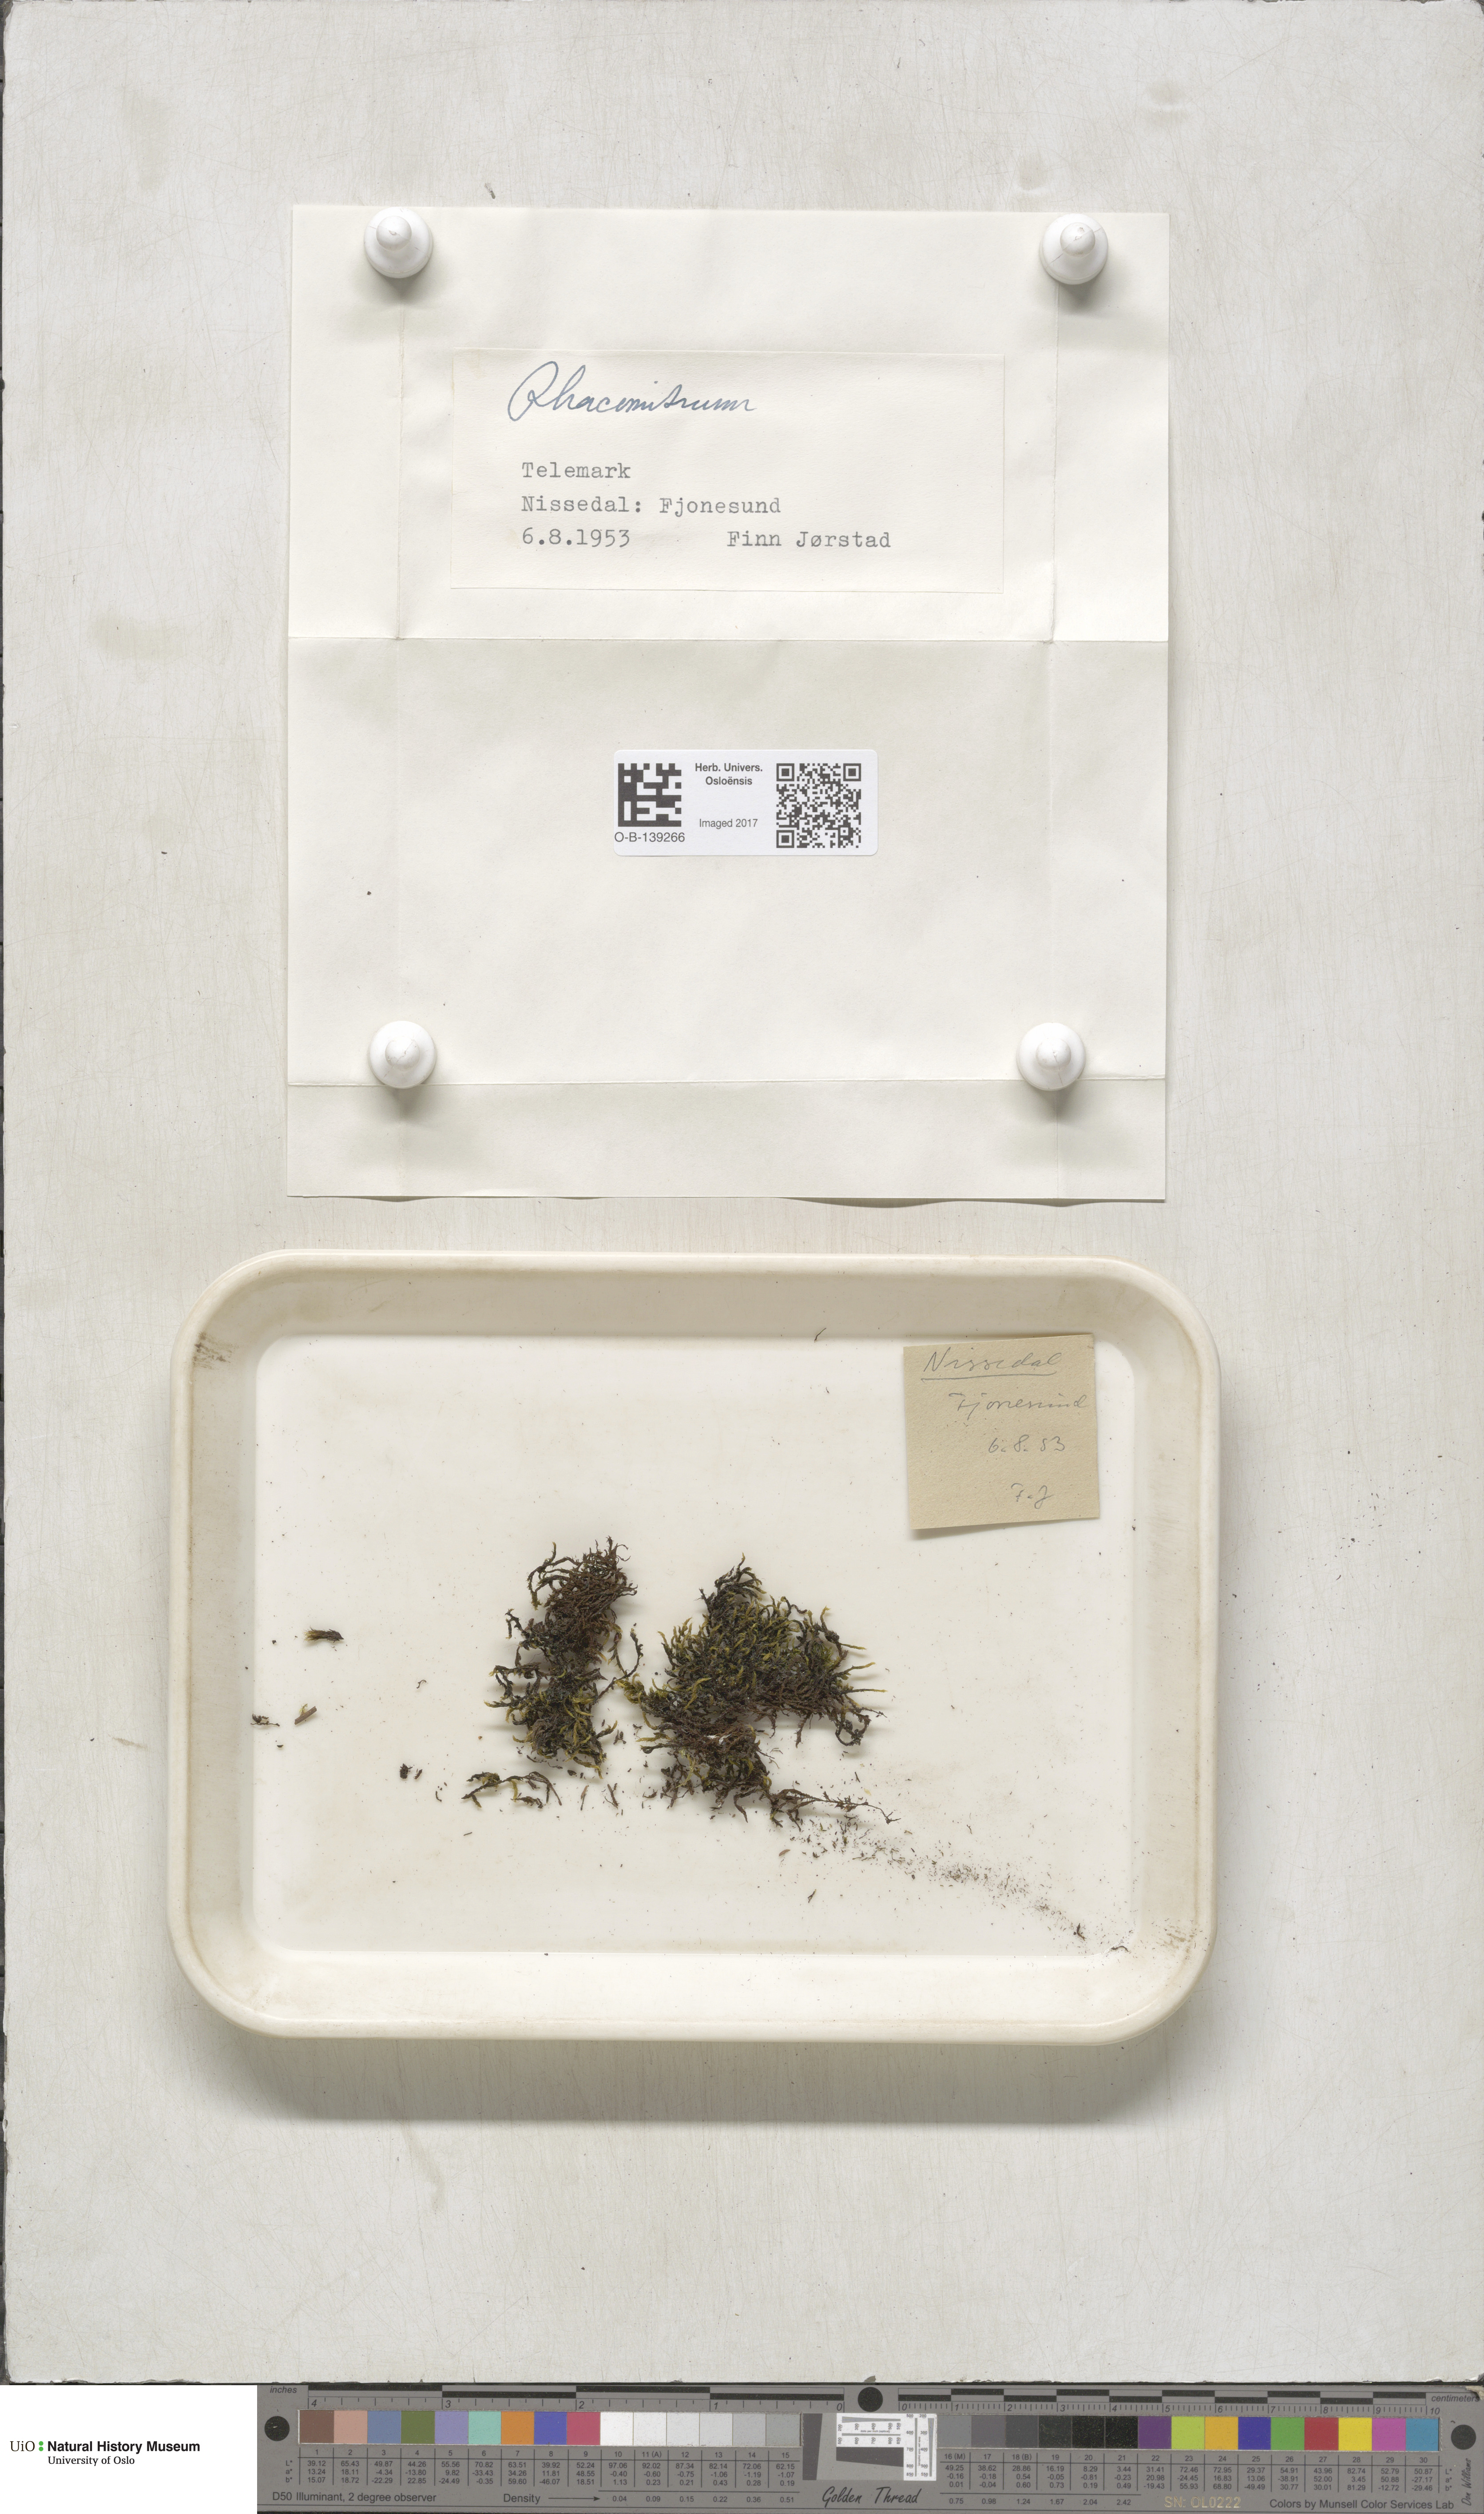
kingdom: Plantae
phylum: Bryophyta
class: Bryopsida
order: Grimmiales
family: Grimmiaceae
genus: Racomitrium
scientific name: Racomitrium
